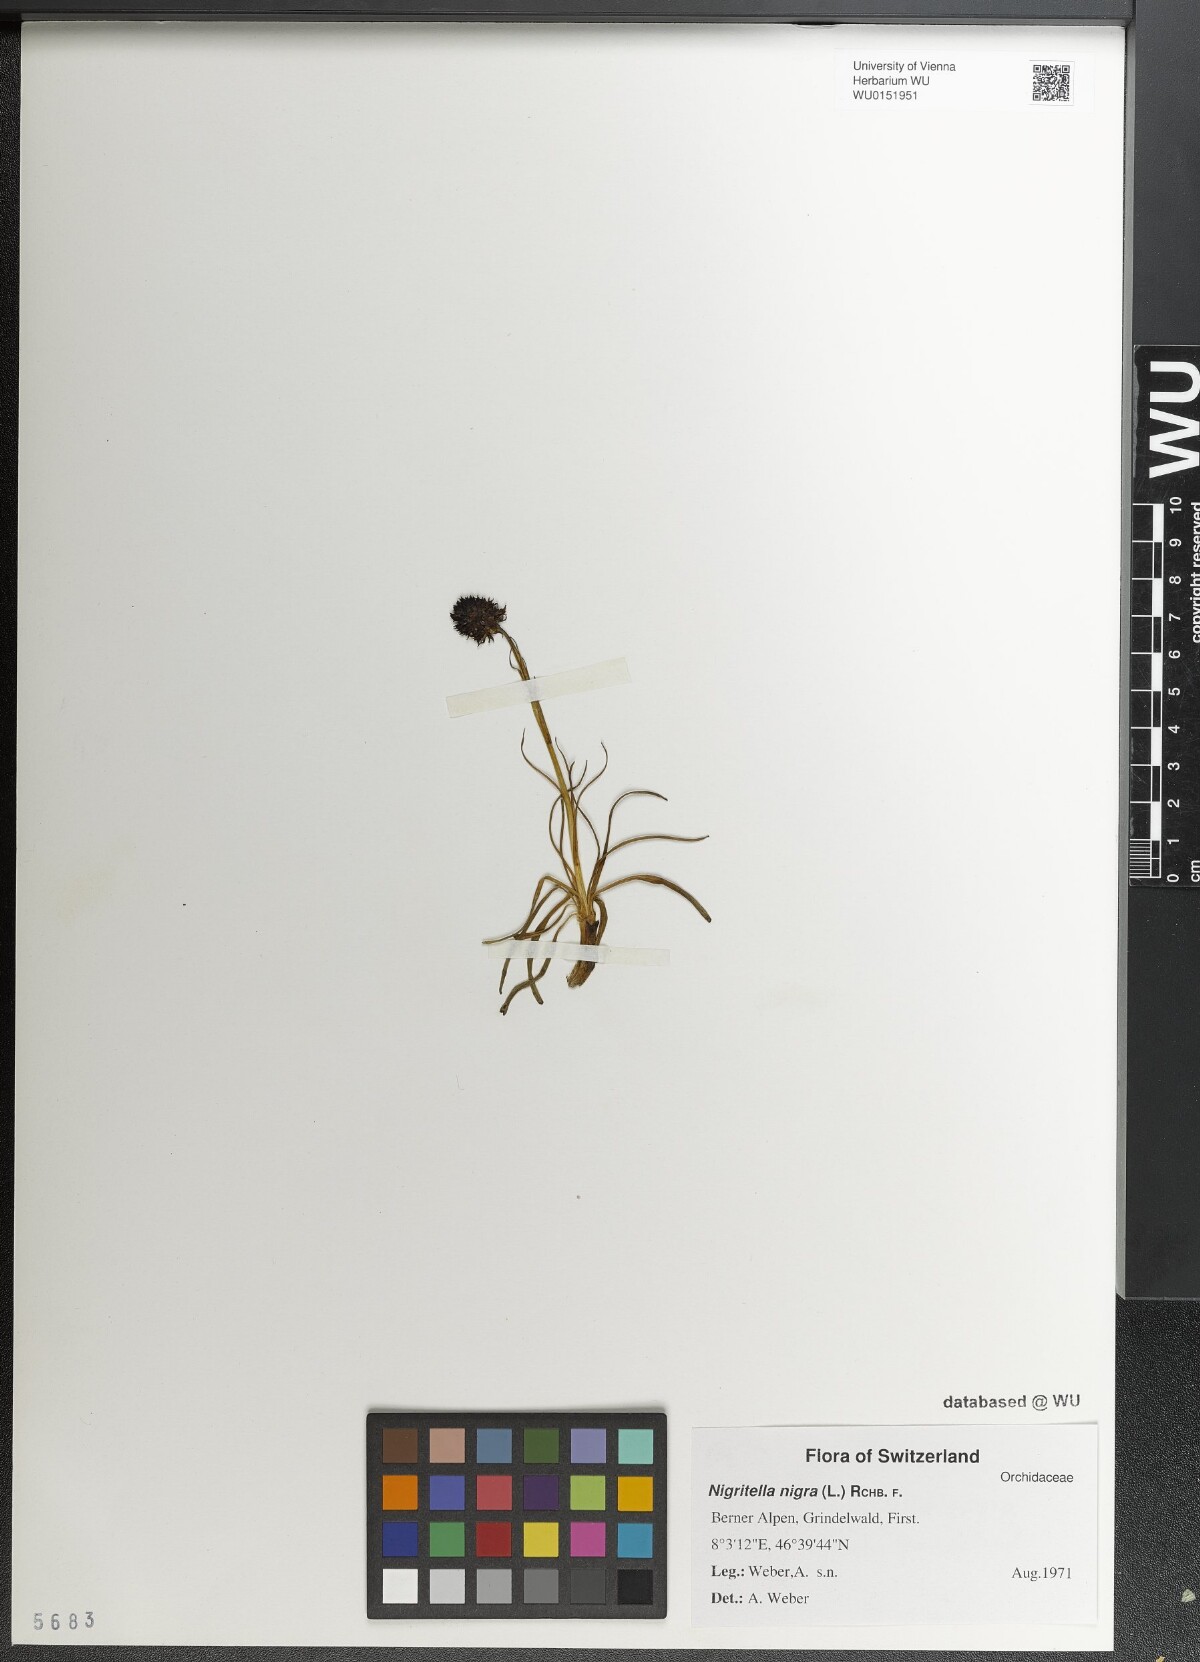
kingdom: Plantae
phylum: Tracheophyta
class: Liliopsida
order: Asparagales
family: Orchidaceae
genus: Gymnadenia
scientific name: Gymnadenia nigra
